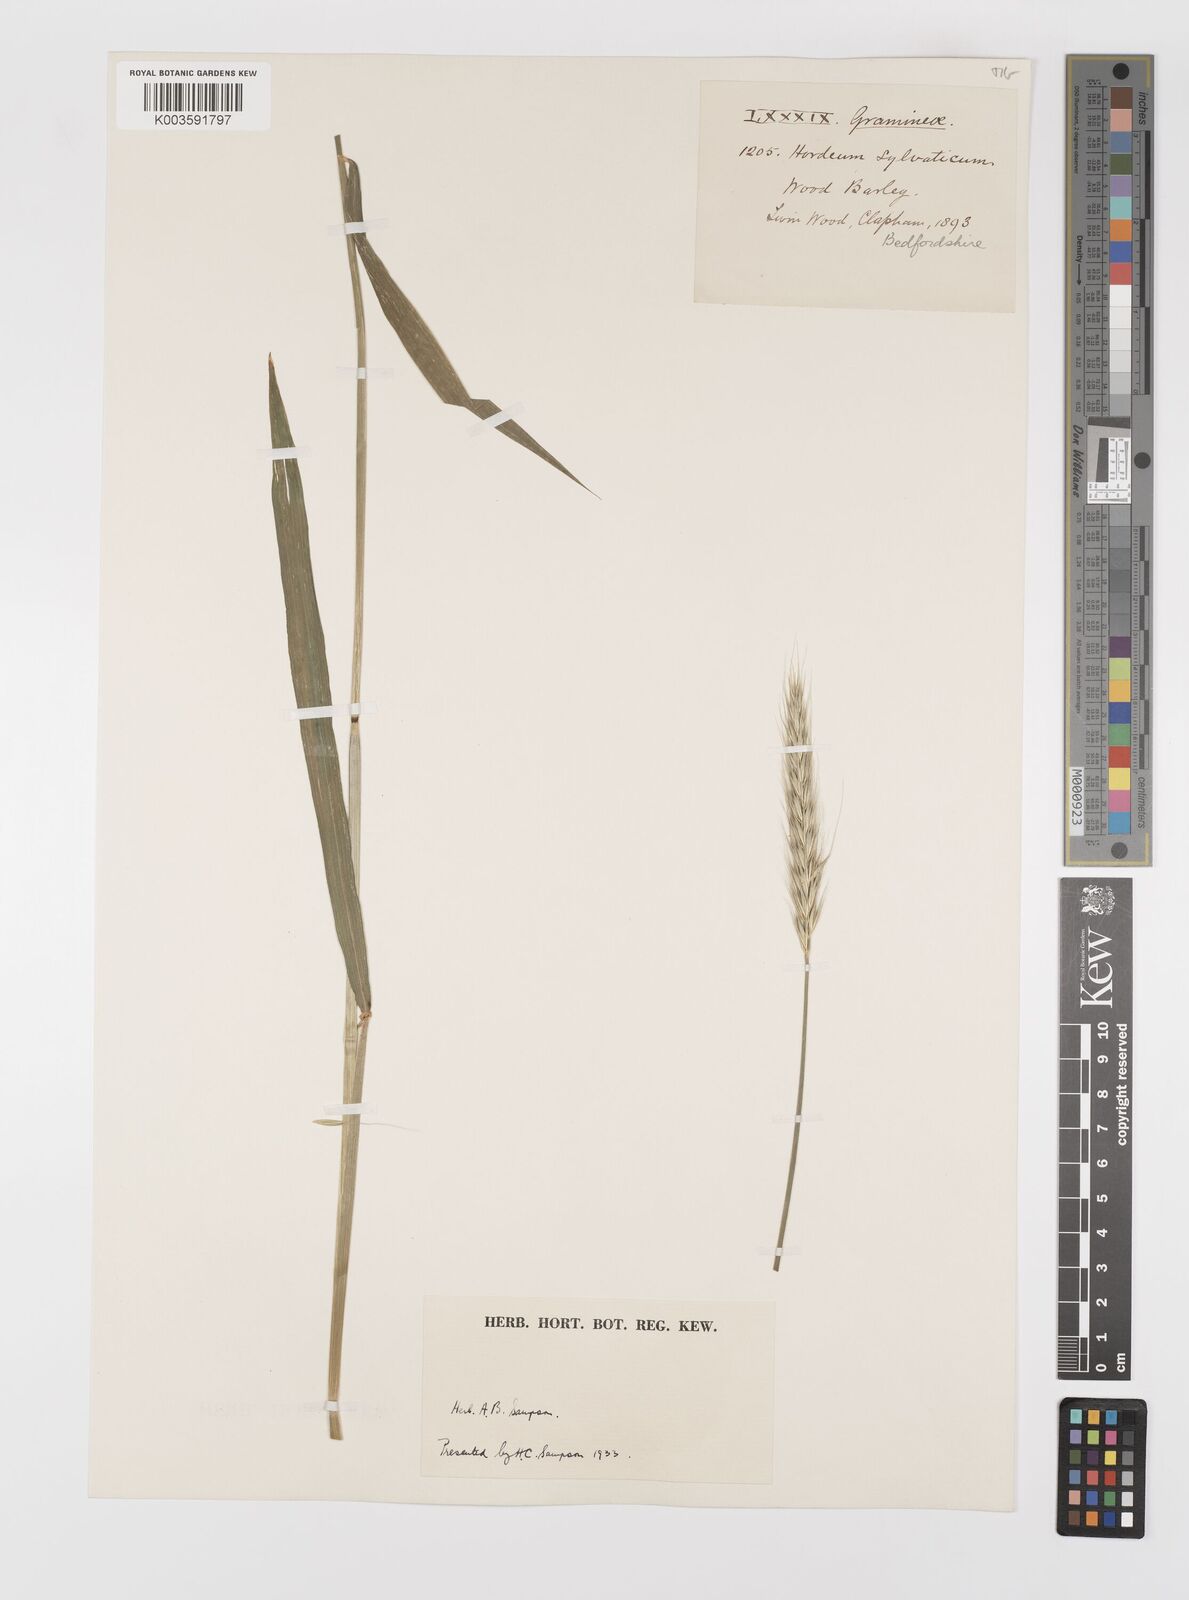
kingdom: Plantae
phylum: Tracheophyta
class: Liliopsida
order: Poales
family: Poaceae
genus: Hordelymus
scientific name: Hordelymus europaeus
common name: Wood-barley
